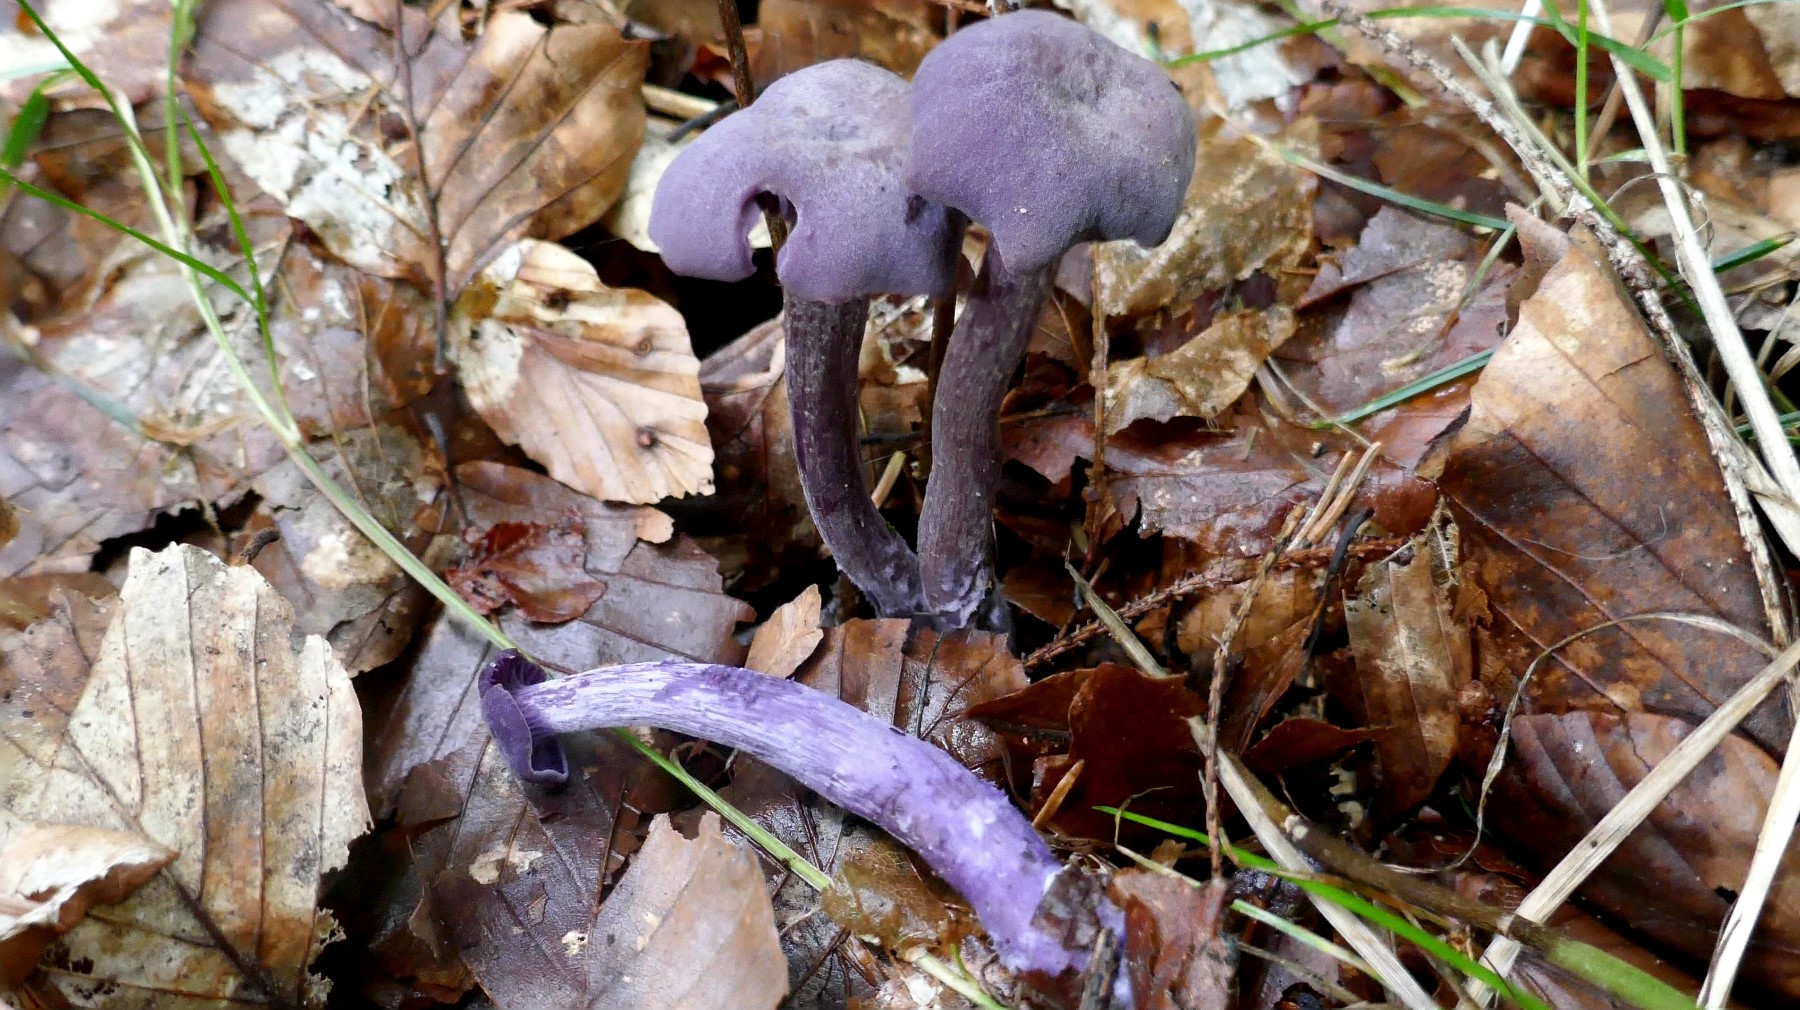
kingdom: Fungi
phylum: Basidiomycota
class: Agaricomycetes
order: Agaricales
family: Hydnangiaceae
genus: Laccaria
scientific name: Laccaria amethystina
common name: violet ametysthat
